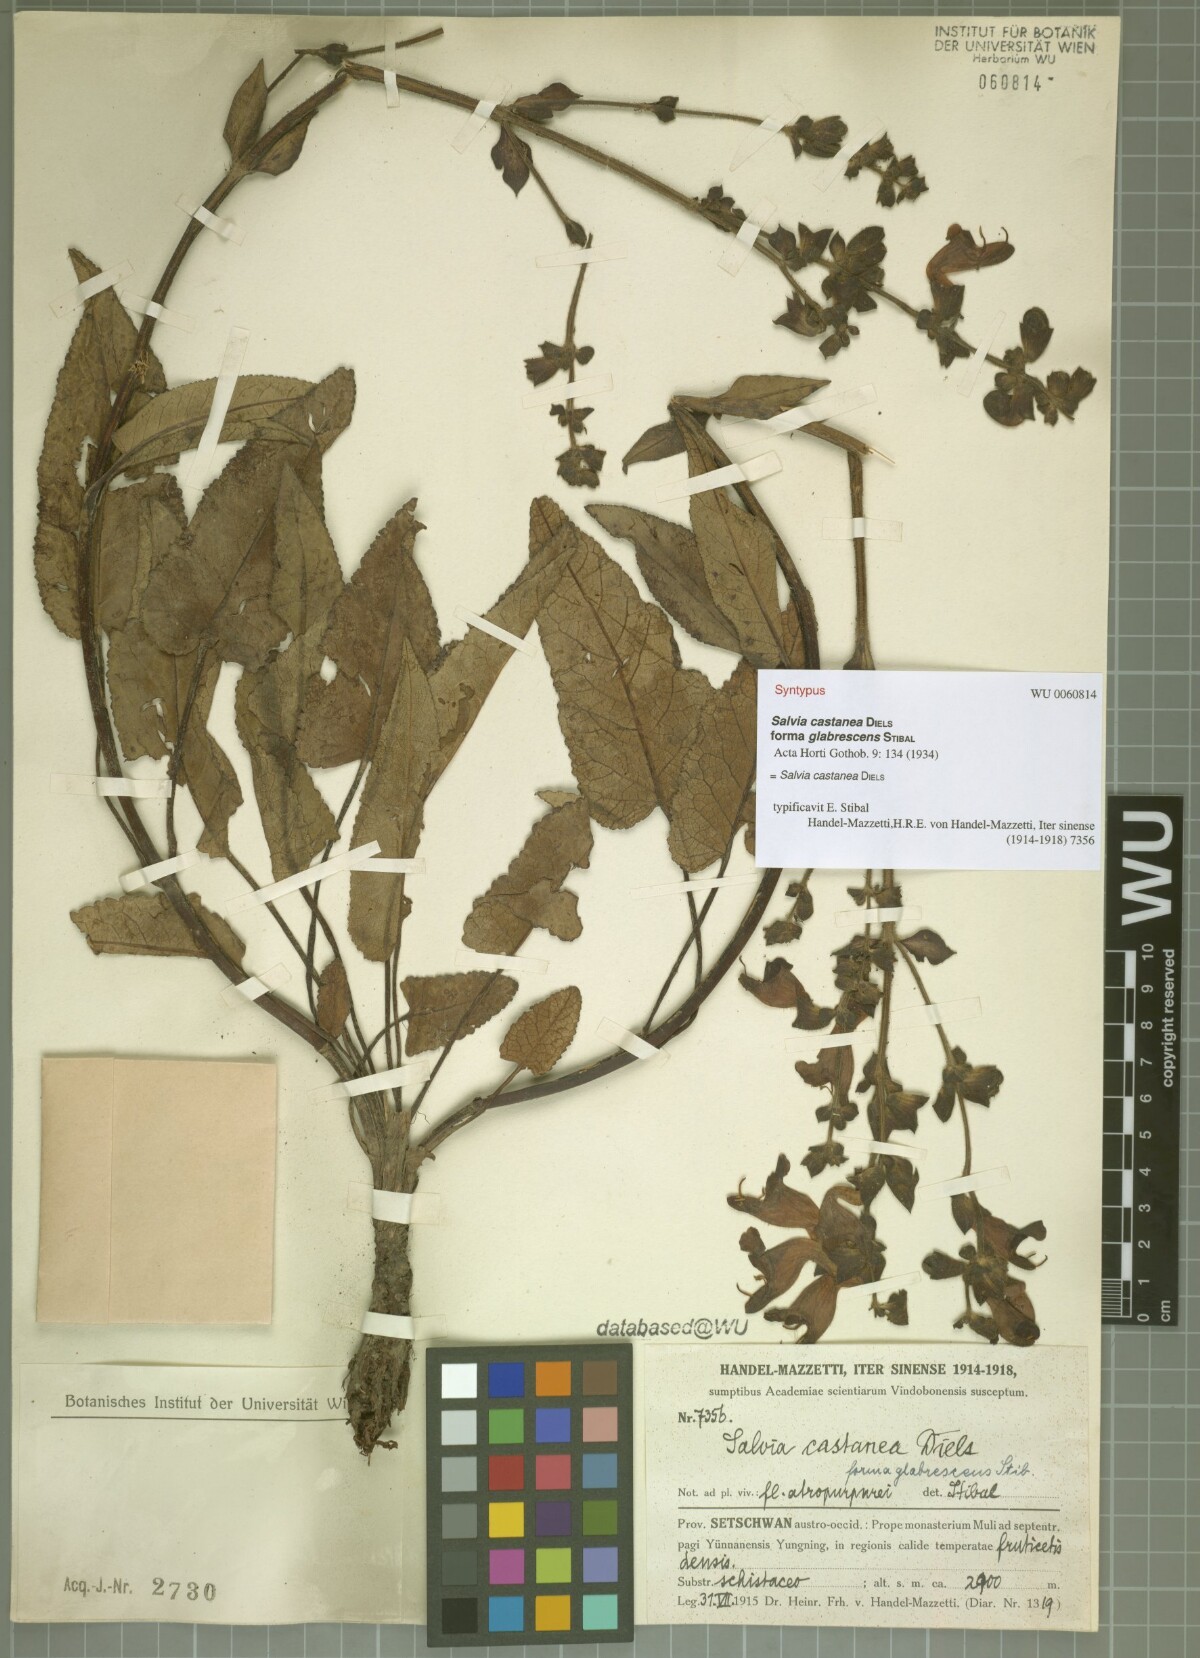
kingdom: Plantae
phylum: Tracheophyta
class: Magnoliopsida
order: Lamiales
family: Lamiaceae
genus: Salvia
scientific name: Salvia castanea
